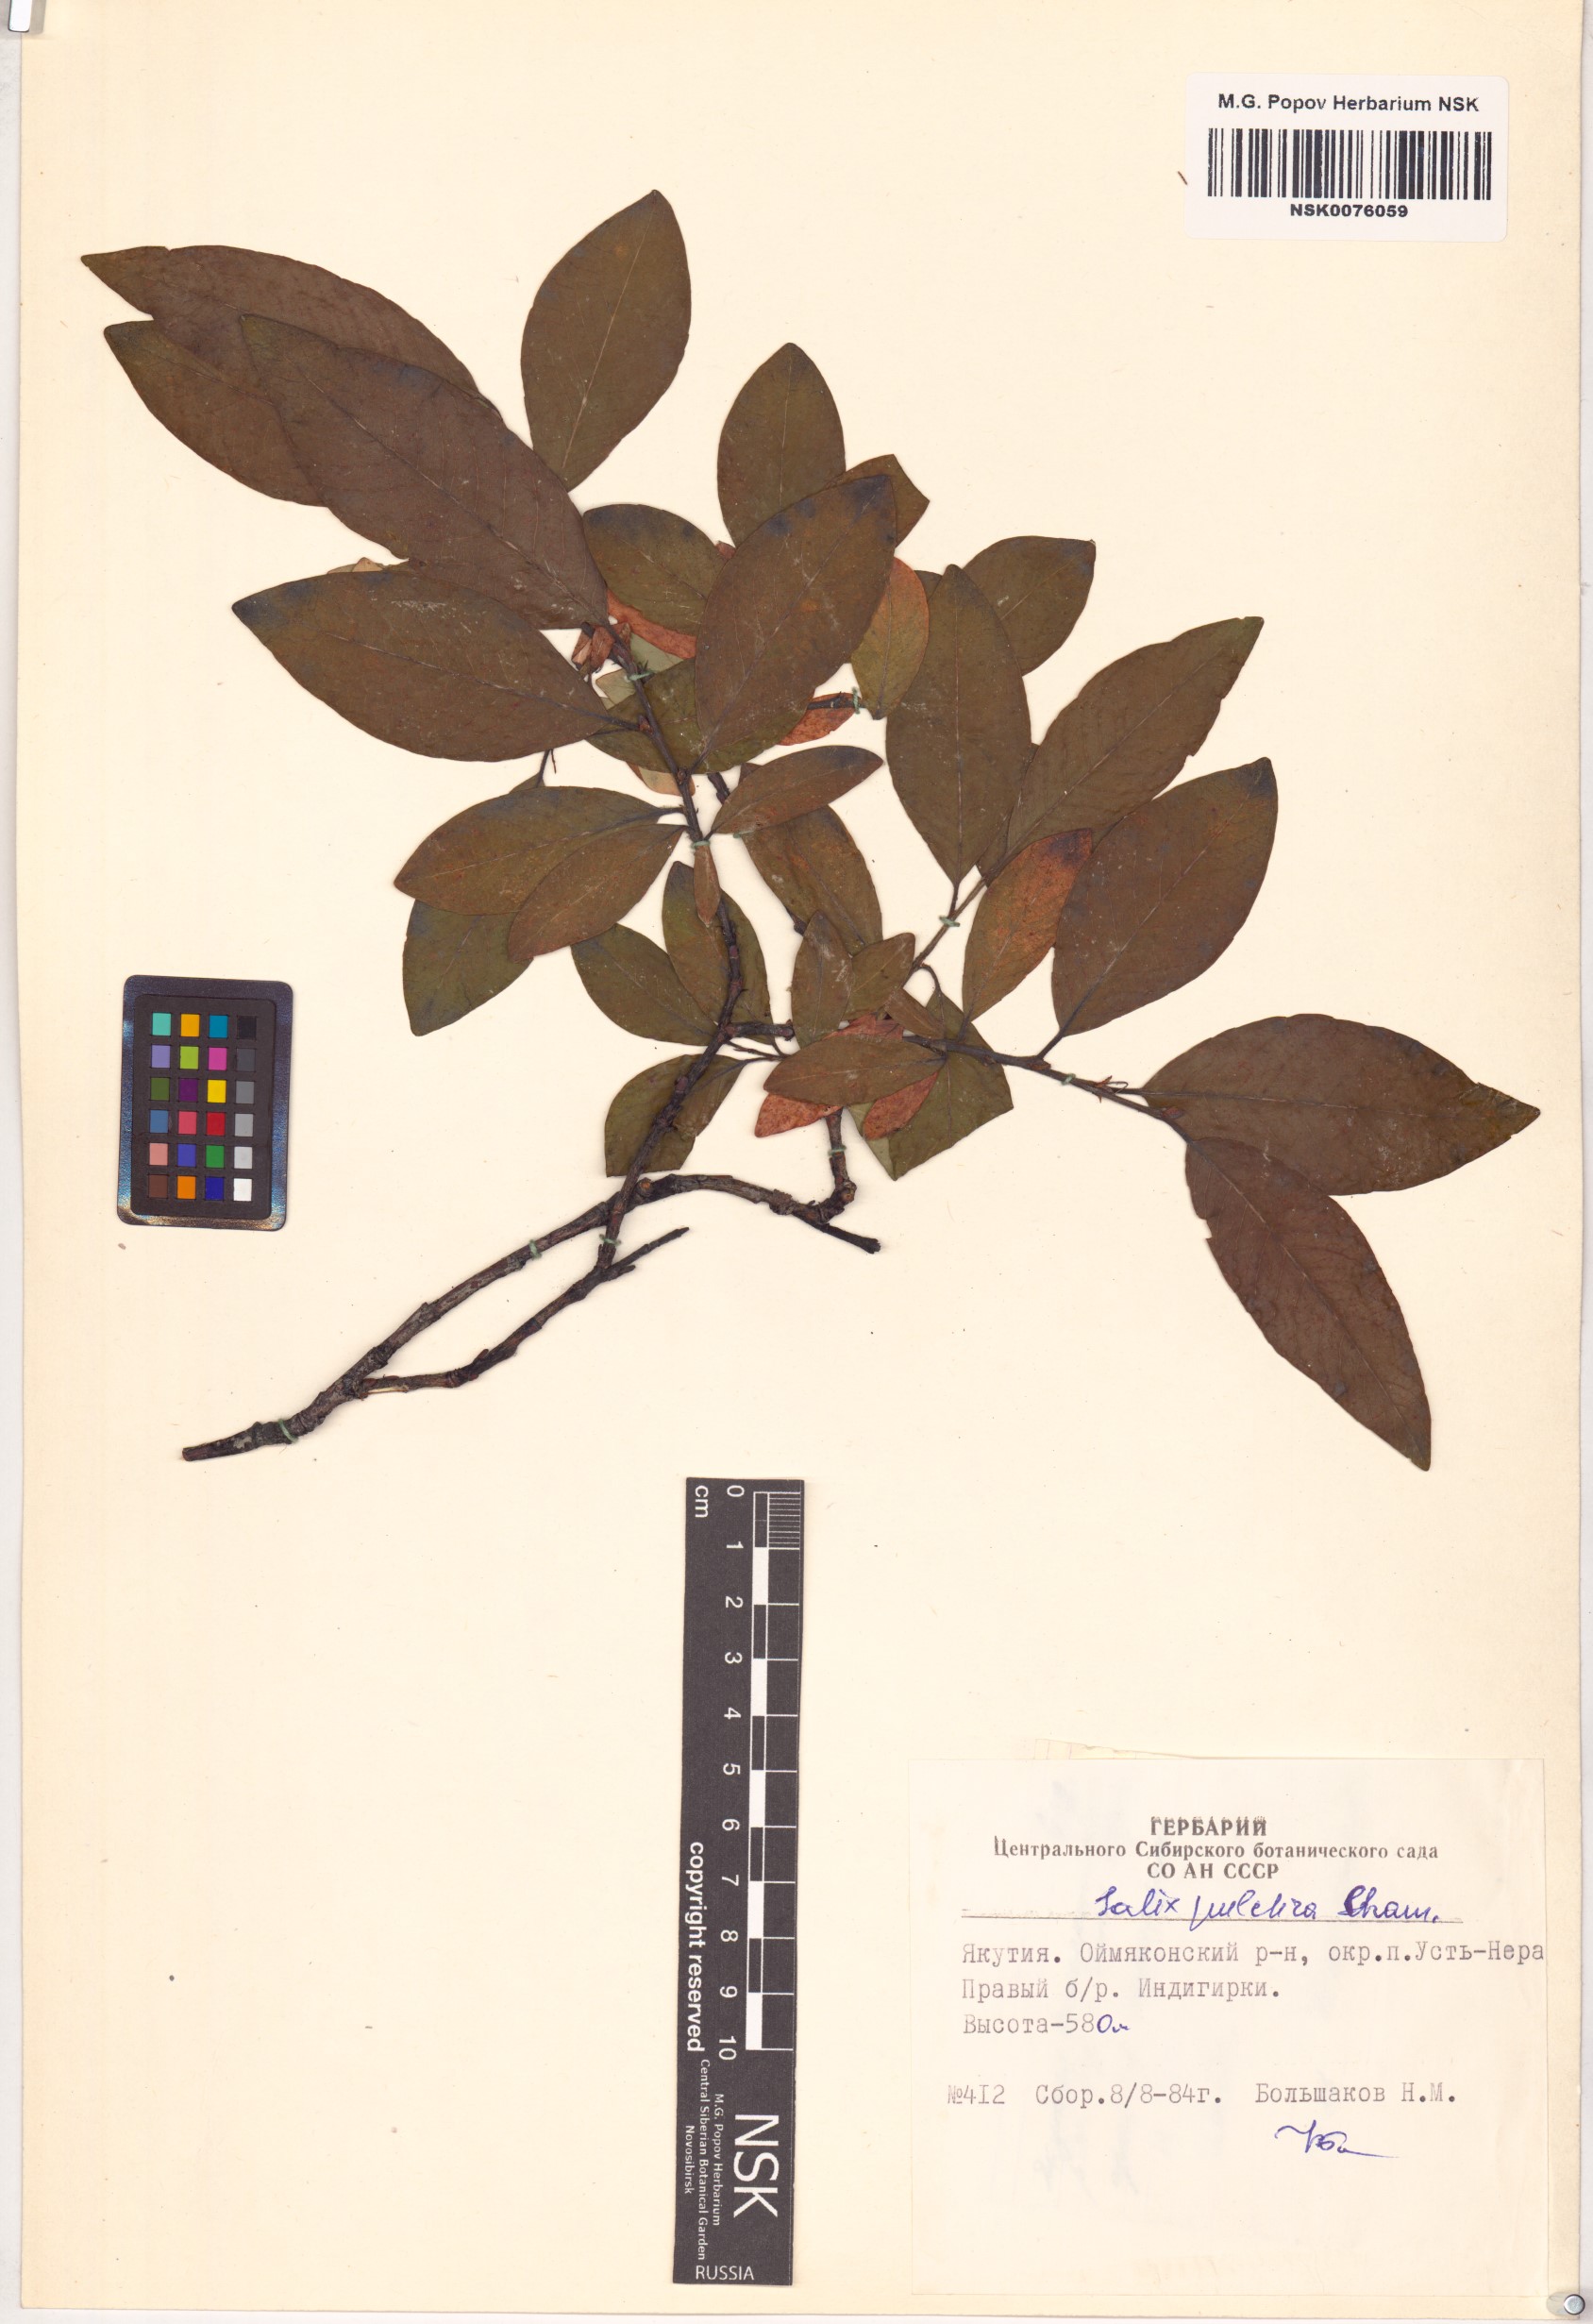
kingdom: Plantae
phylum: Tracheophyta
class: Magnoliopsida
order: Malpighiales
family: Salicaceae
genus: Salix
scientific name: Salix pulchra
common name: Diamond-leaved willow
